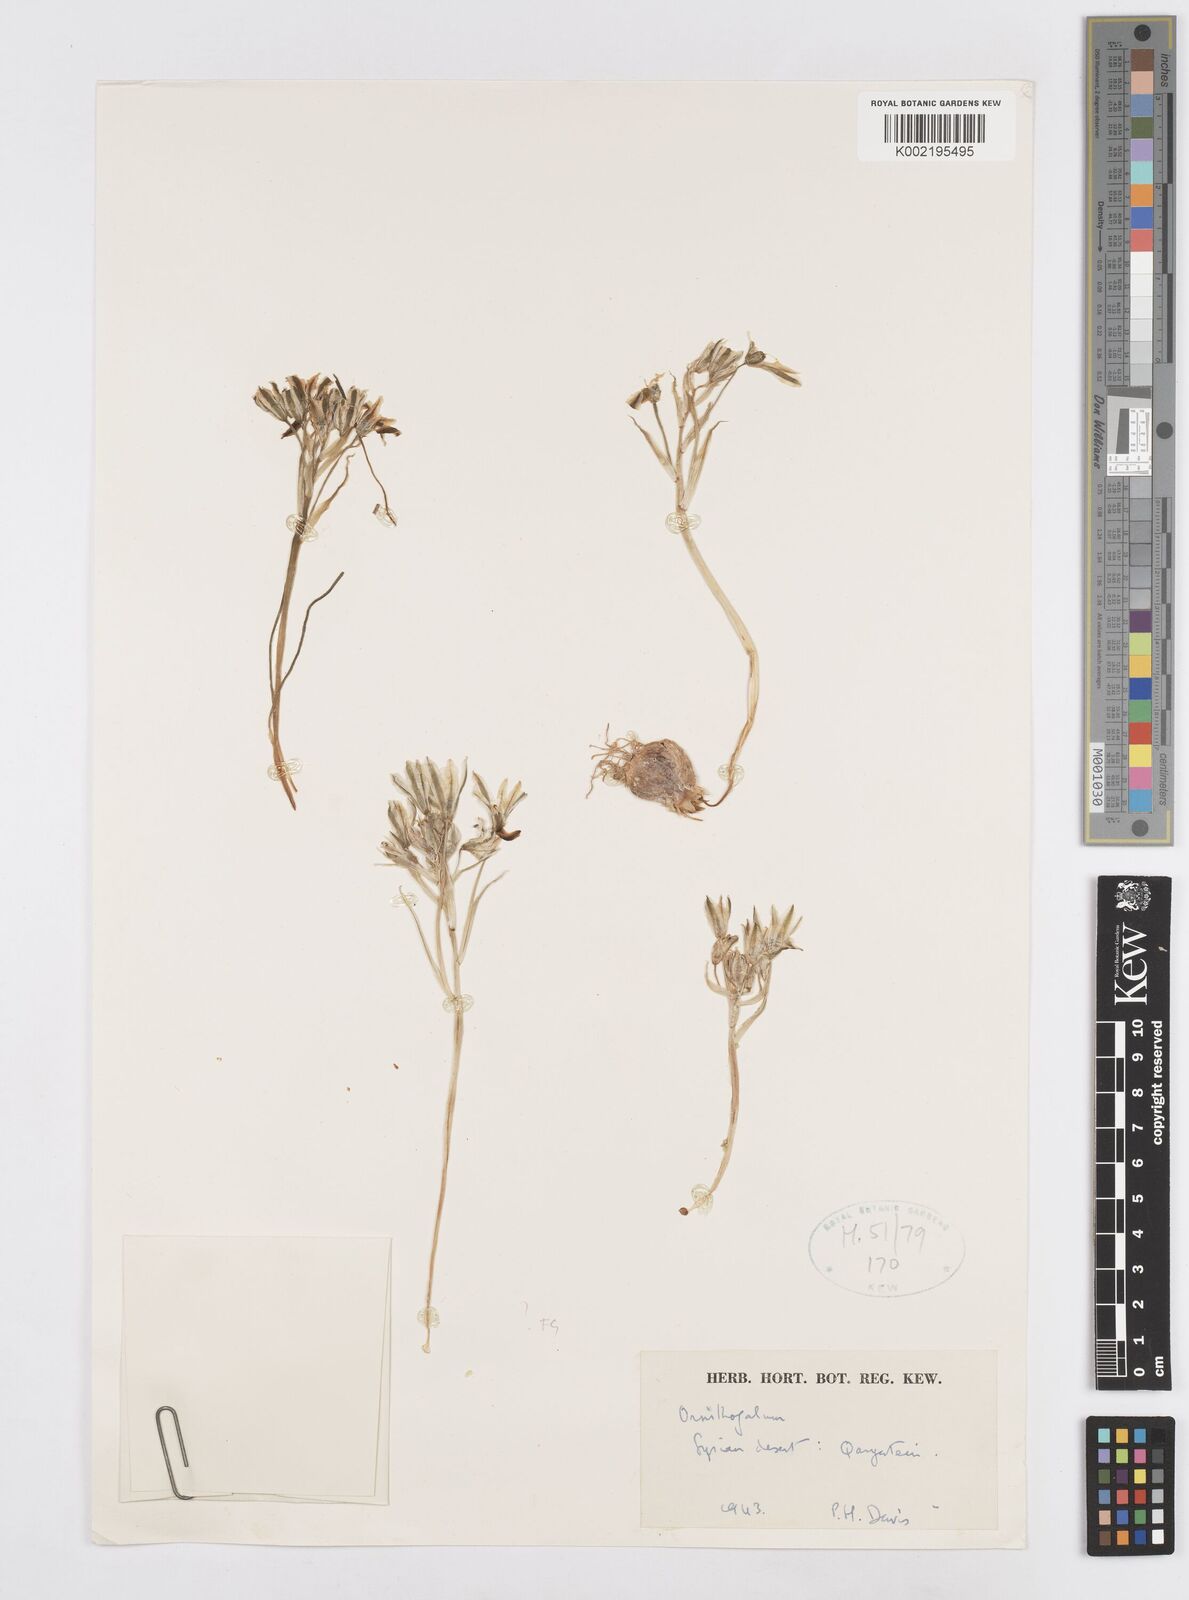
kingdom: Plantae
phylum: Tracheophyta
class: Liliopsida
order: Asparagales
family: Asparagaceae
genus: Ornithogalum
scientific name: Ornithogalum
